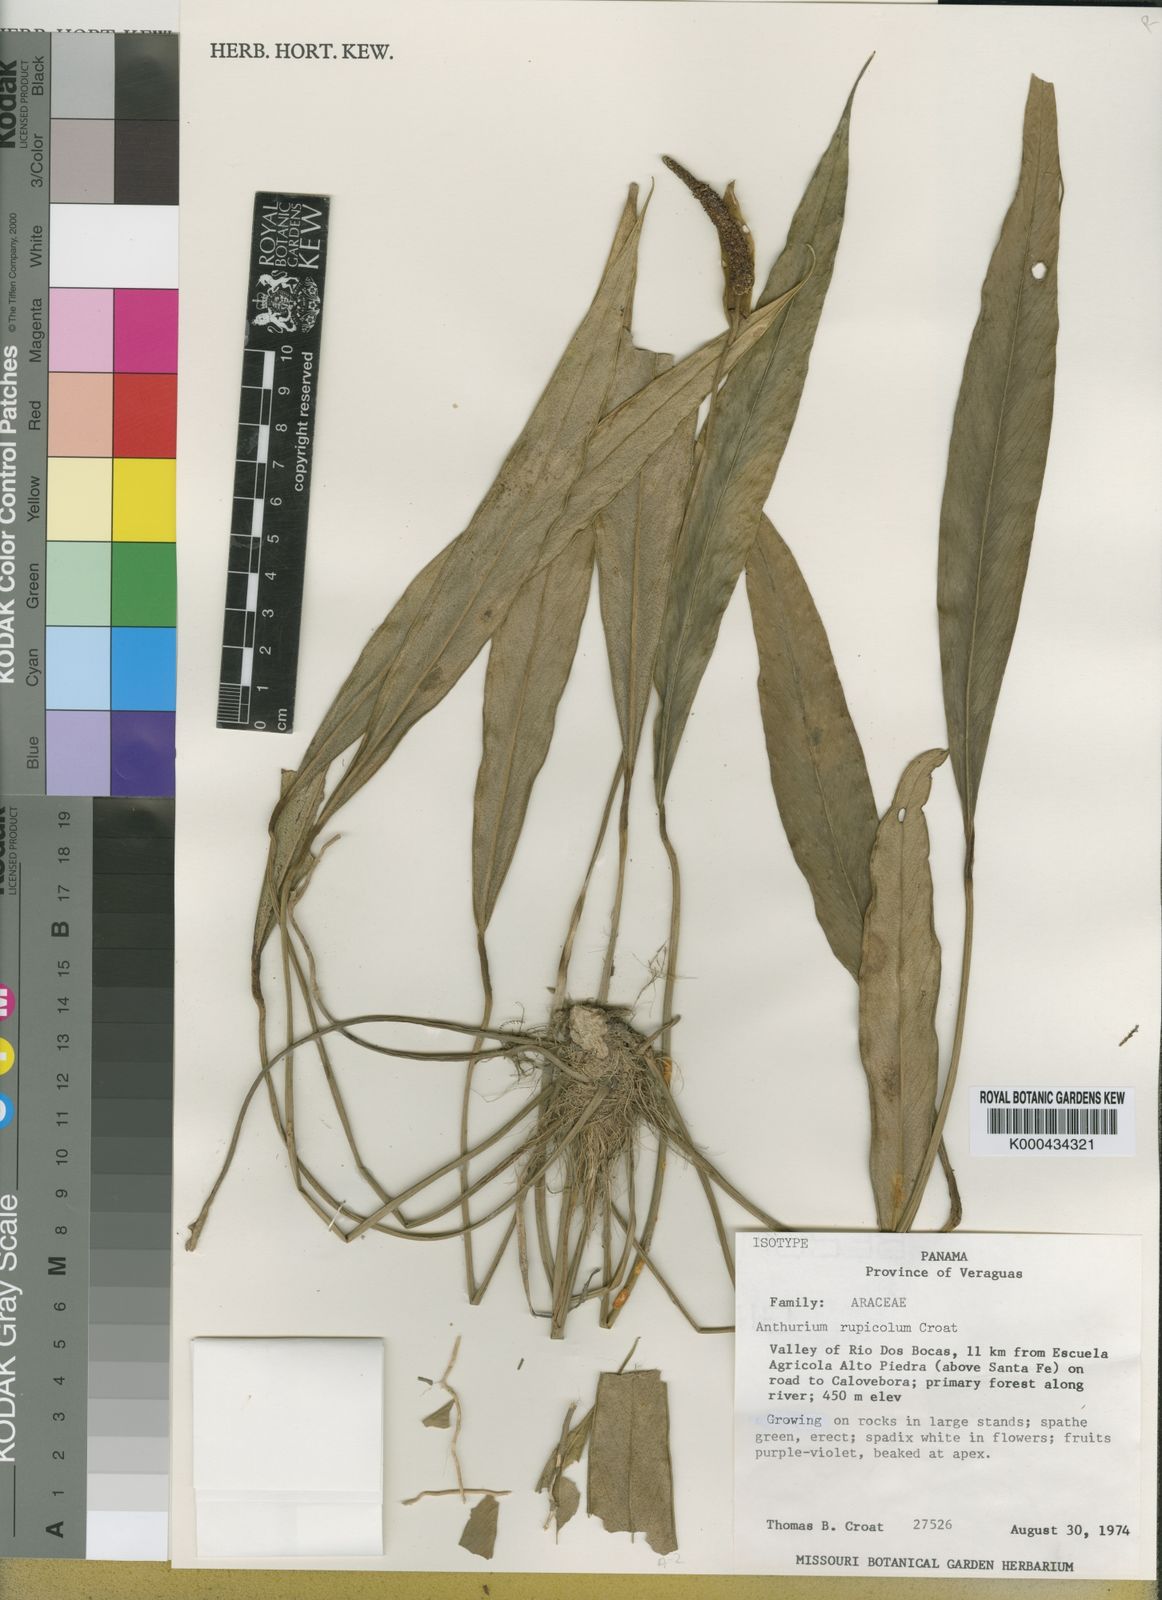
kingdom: Plantae
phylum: Tracheophyta
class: Liliopsida
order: Alismatales
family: Araceae
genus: Anthurium
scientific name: Anthurium rupicola
